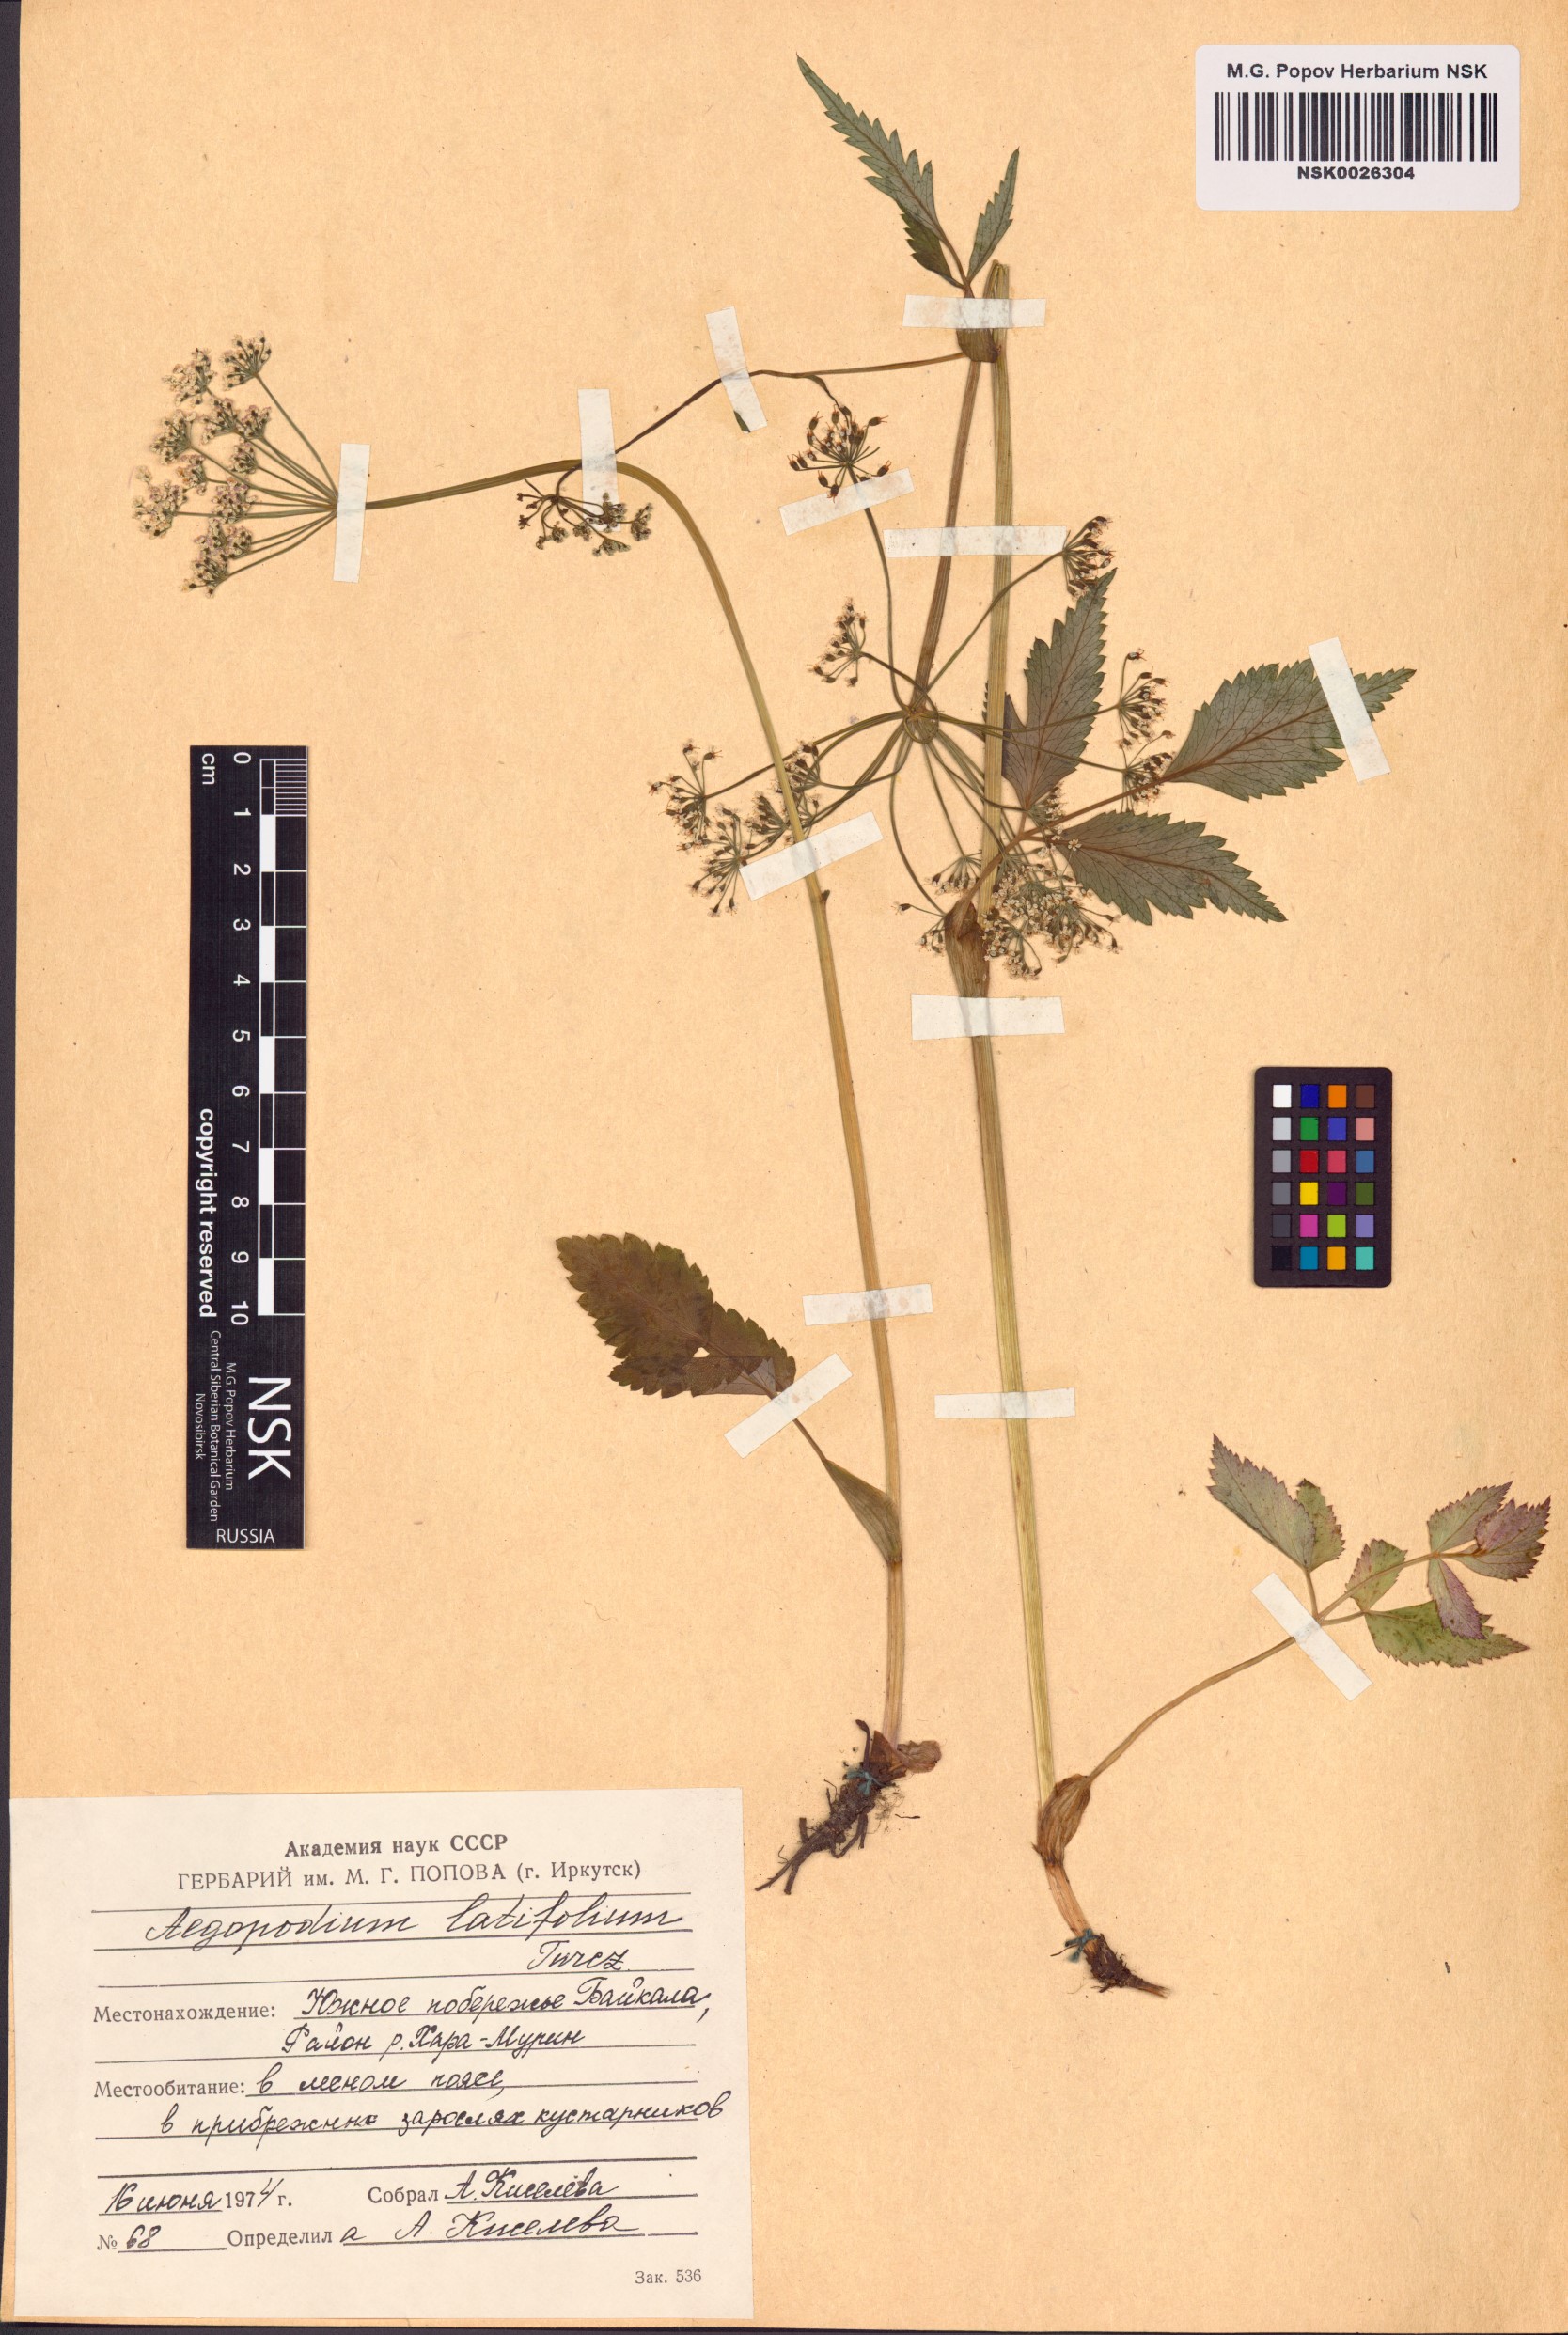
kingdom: Plantae
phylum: Tracheophyta
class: Magnoliopsida
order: Apiales
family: Apiaceae
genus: Aegopodium
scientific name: Aegopodium latifolium
